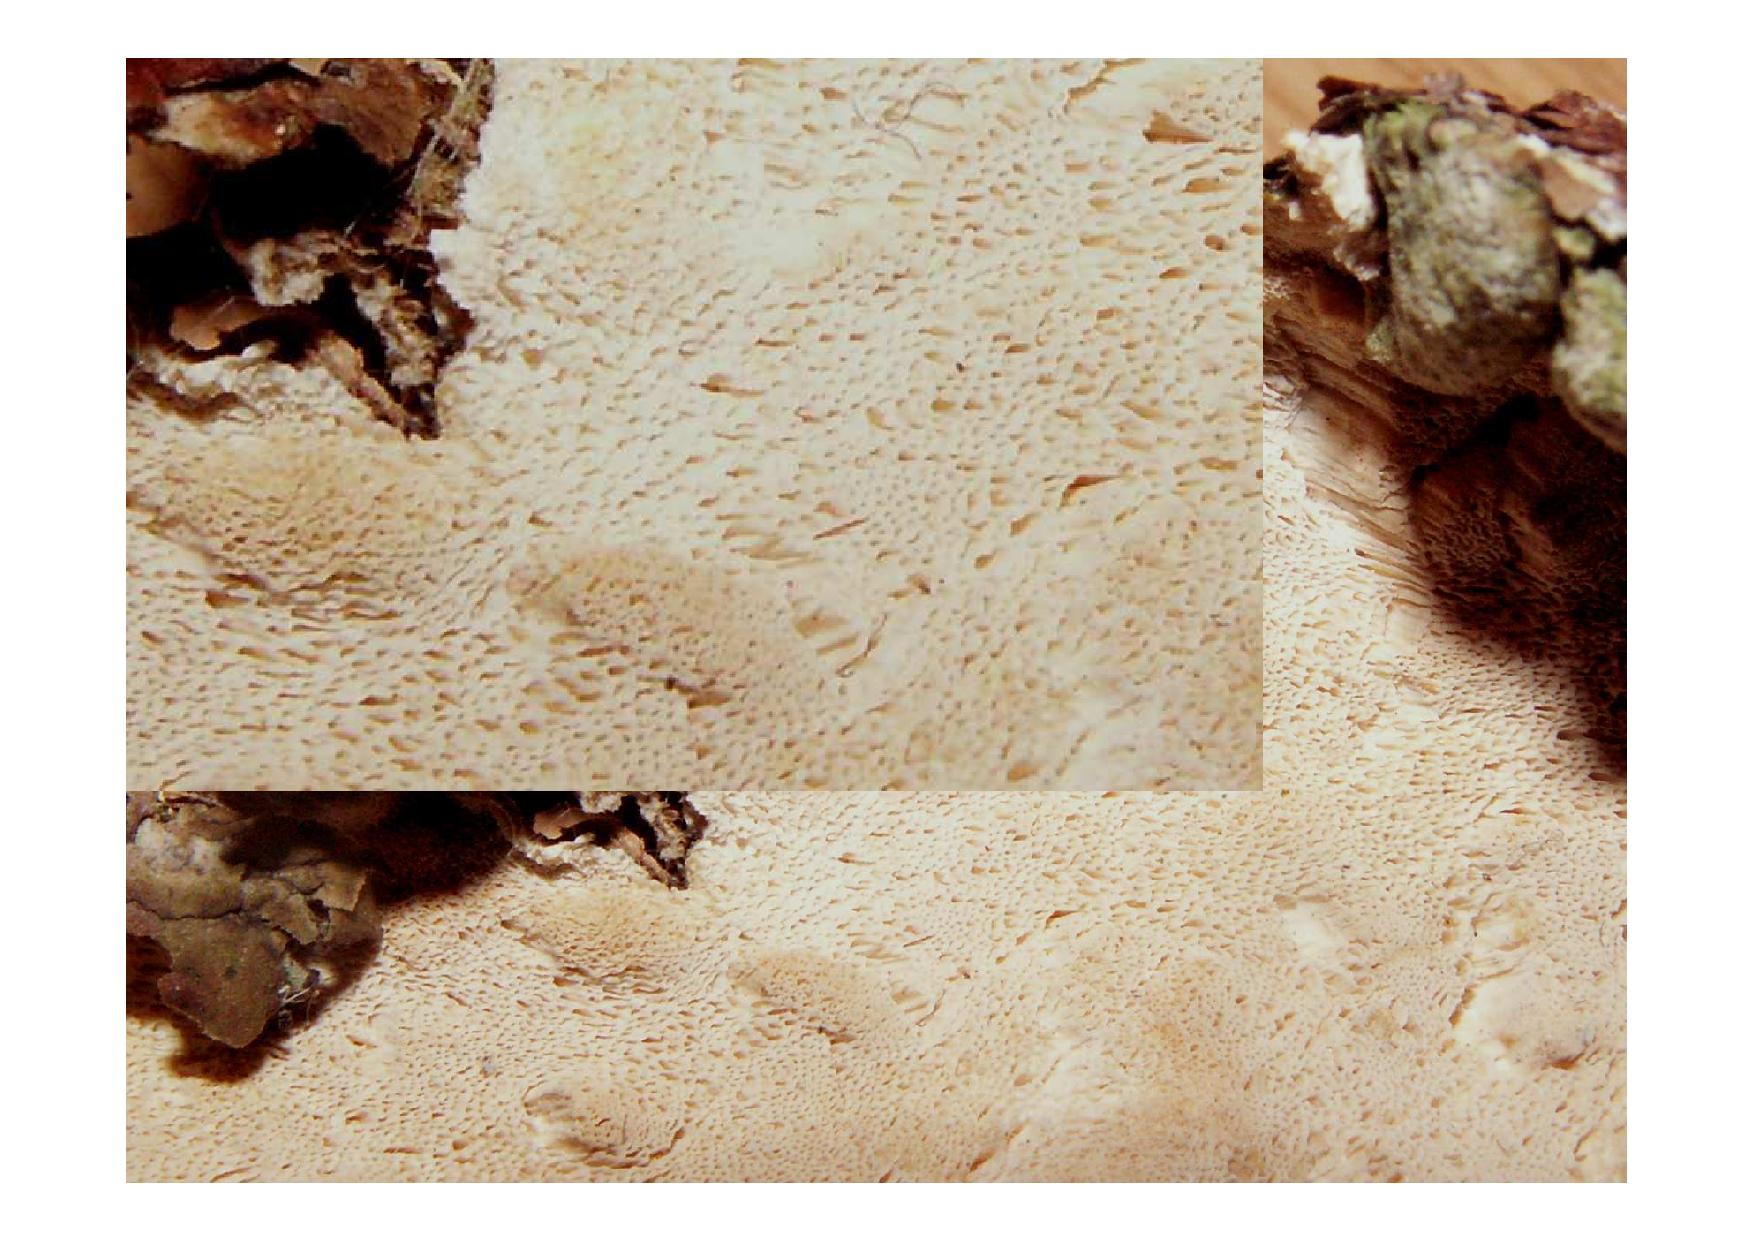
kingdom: Fungi
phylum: Basidiomycota
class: Agaricomycetes
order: Polyporales
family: Steccherinaceae
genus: Antrodiella
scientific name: Antrodiella parasitica
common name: violpore-elastiskporesvamp
